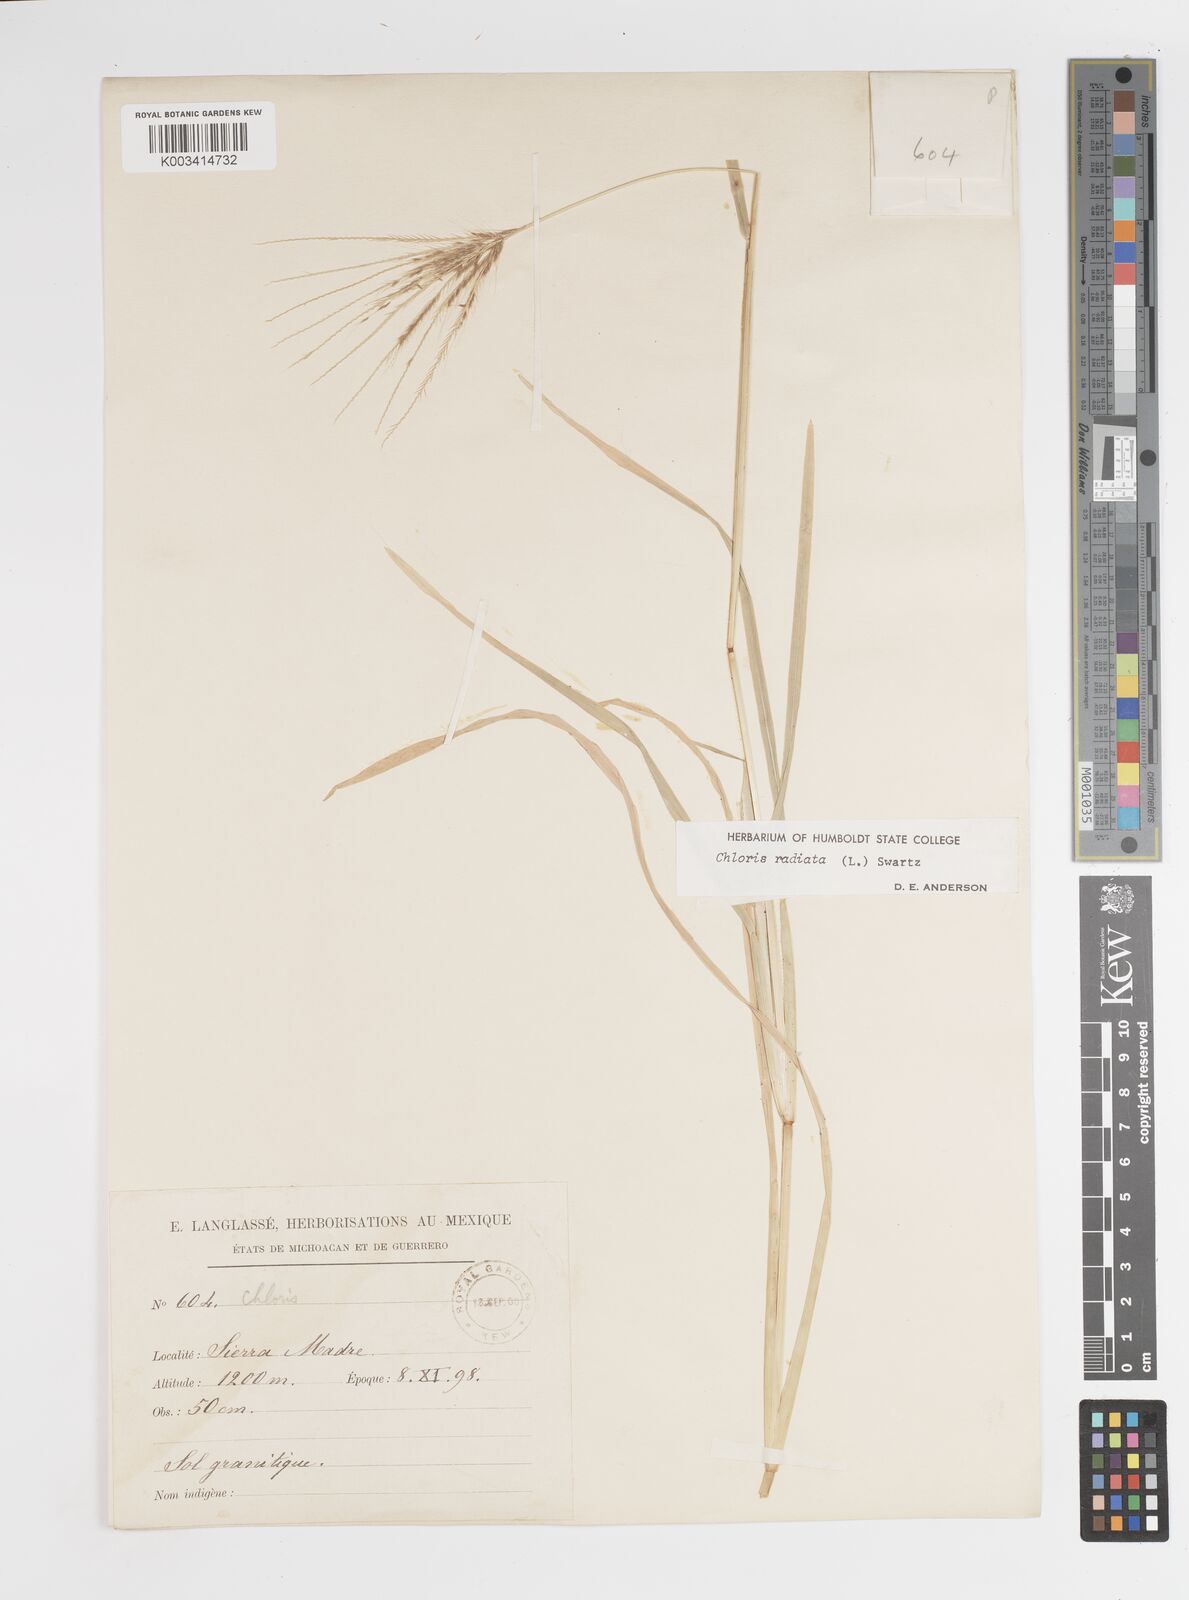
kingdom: Plantae
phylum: Tracheophyta
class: Liliopsida
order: Poales
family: Poaceae
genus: Chloris
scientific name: Chloris radiata
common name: Radiate fingergrass
